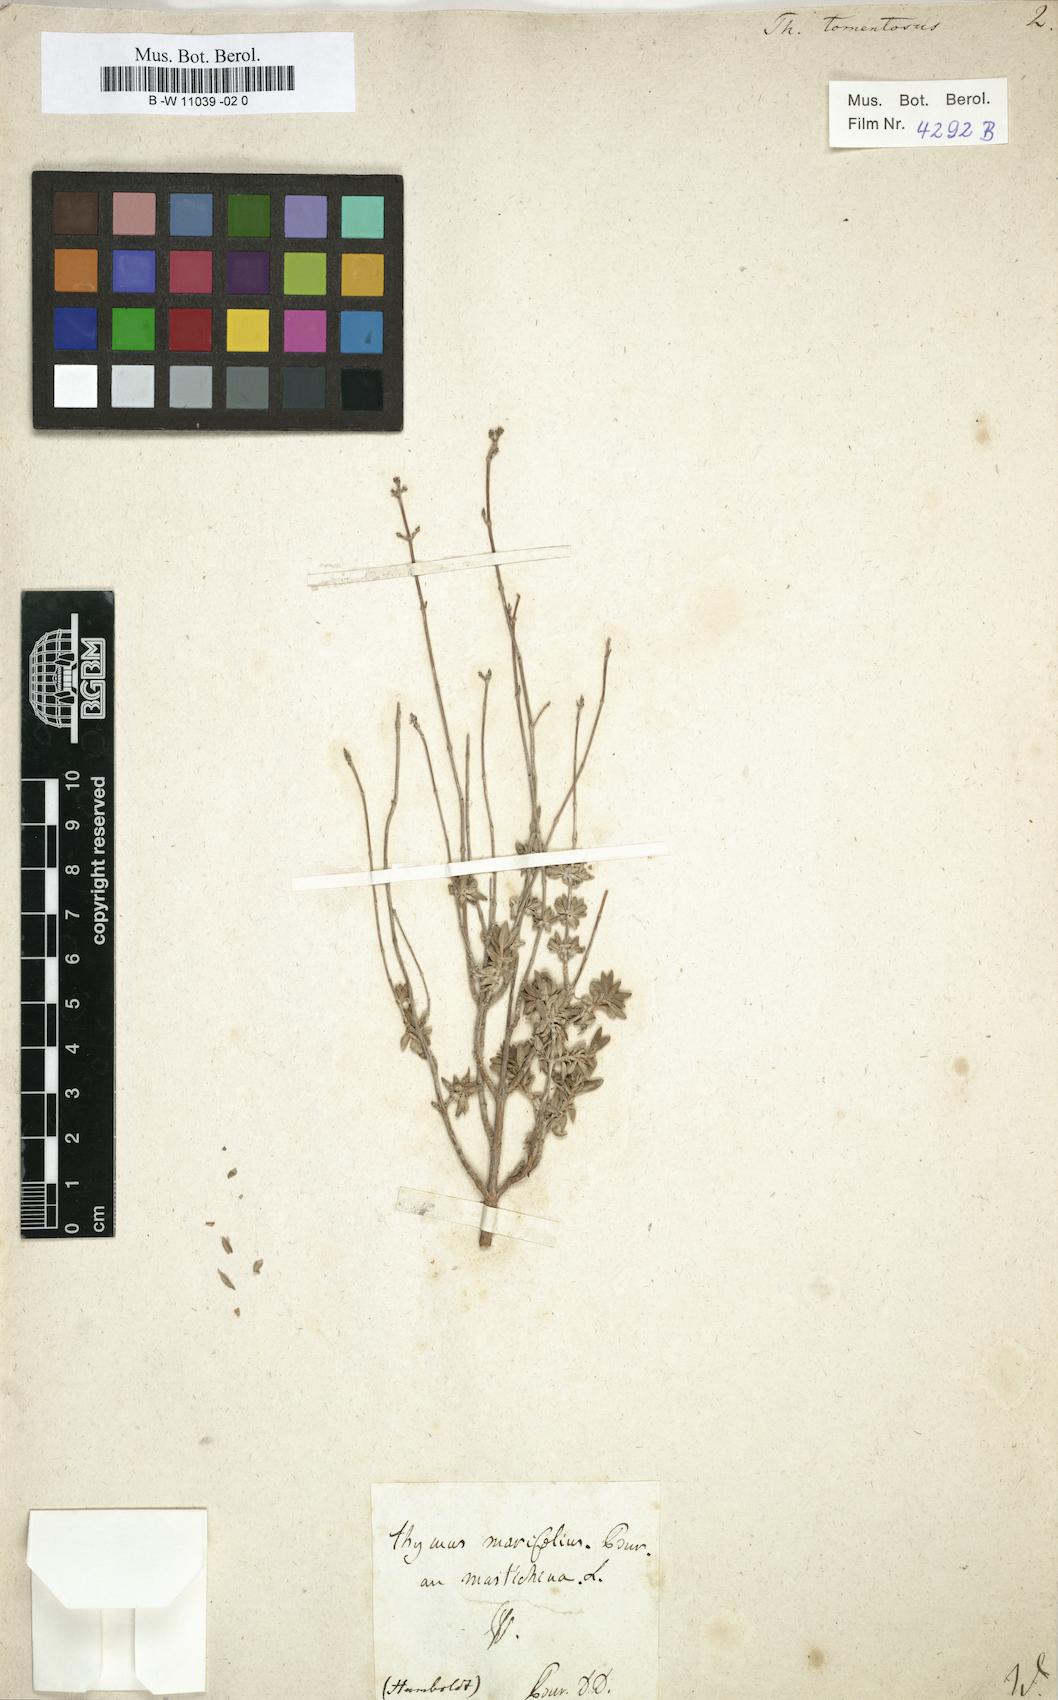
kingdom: Plantae
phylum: Tracheophyta
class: Magnoliopsida
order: Lamiales
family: Lamiaceae
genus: Thymus
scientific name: Thymus mastichina
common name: Mastic thyme
